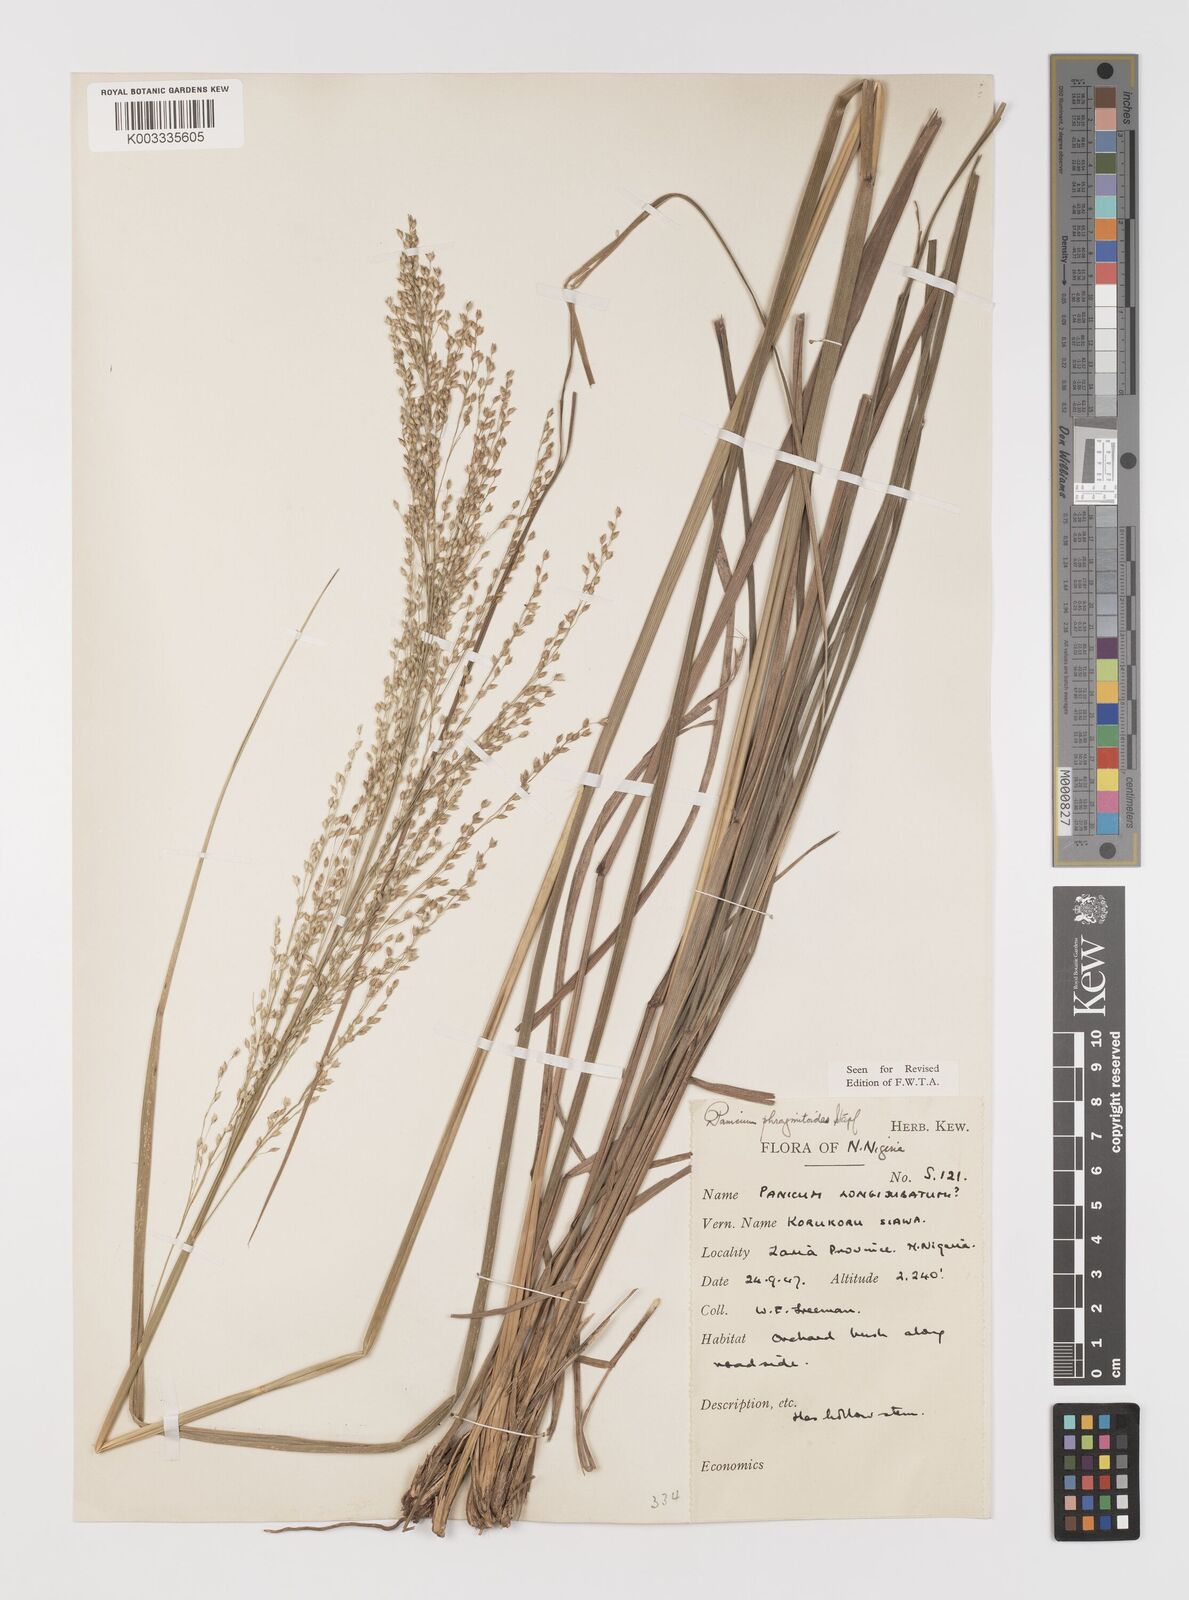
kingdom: Plantae
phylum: Tracheophyta
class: Liliopsida
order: Poales
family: Poaceae
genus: Panicum
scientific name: Panicum phragmitoides
